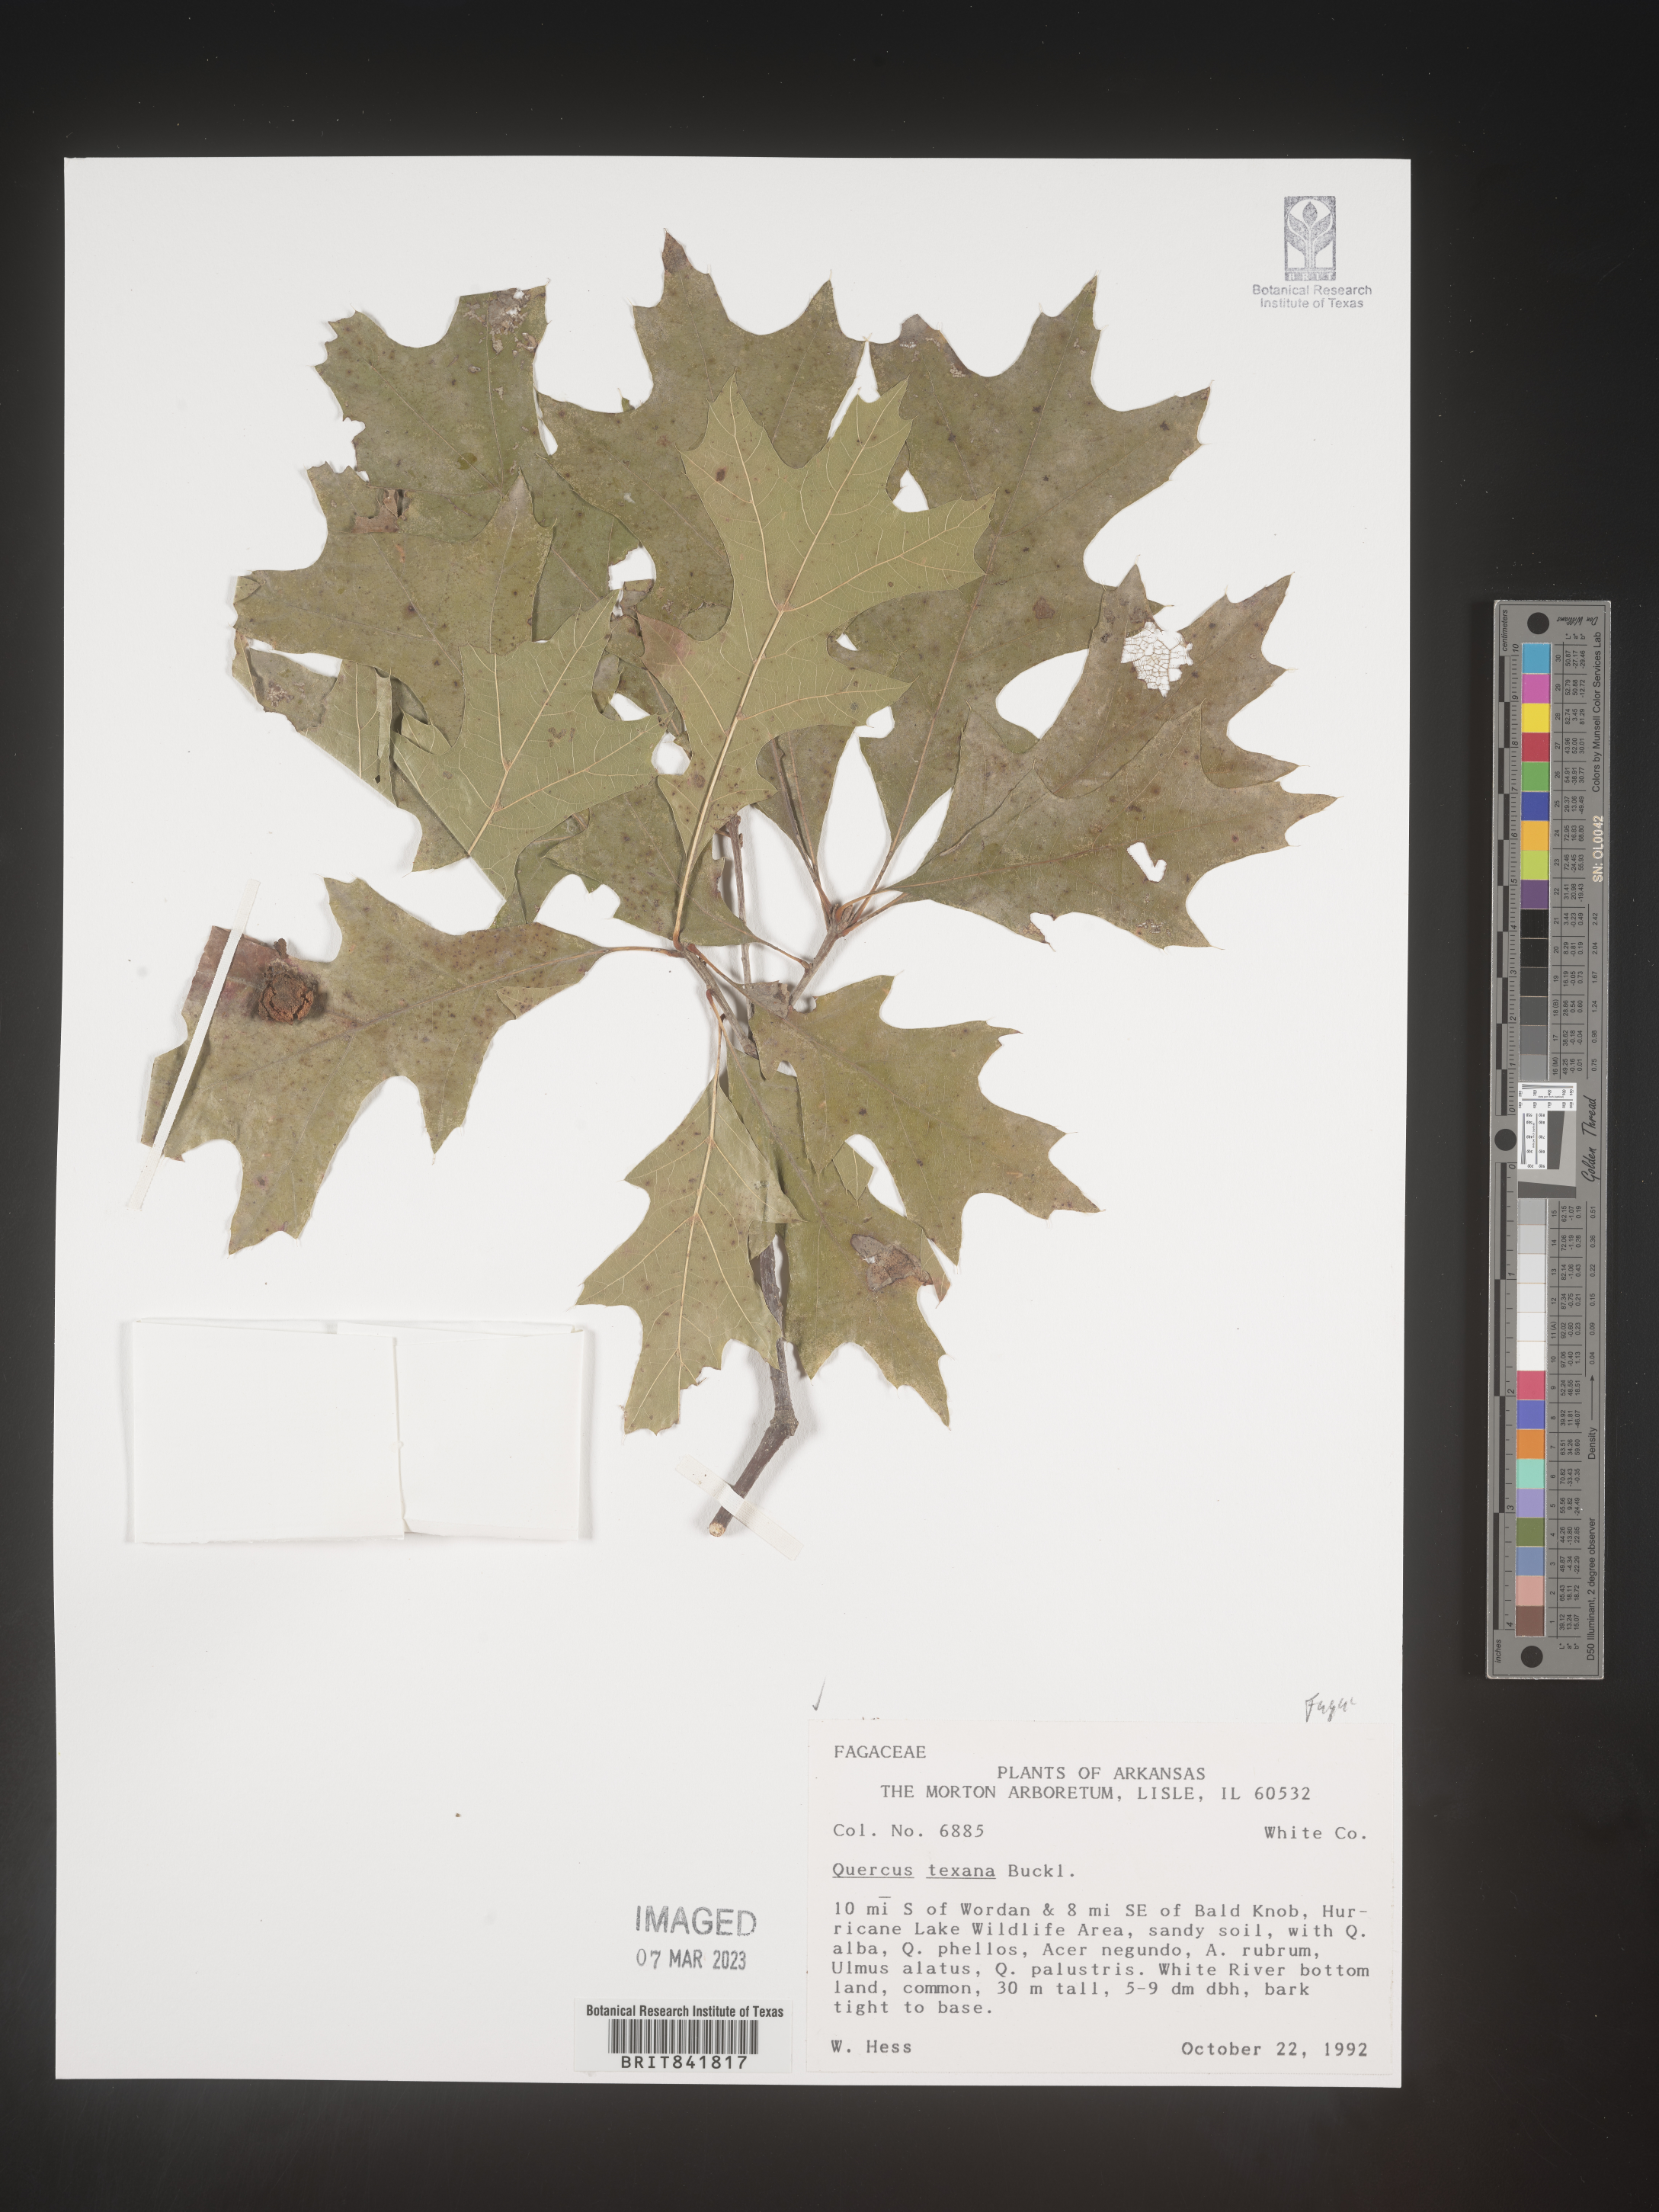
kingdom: Plantae
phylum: Tracheophyta
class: Magnoliopsida
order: Fagales
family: Fagaceae
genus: Quercus
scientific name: Quercus texana
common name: Nuttall oak
